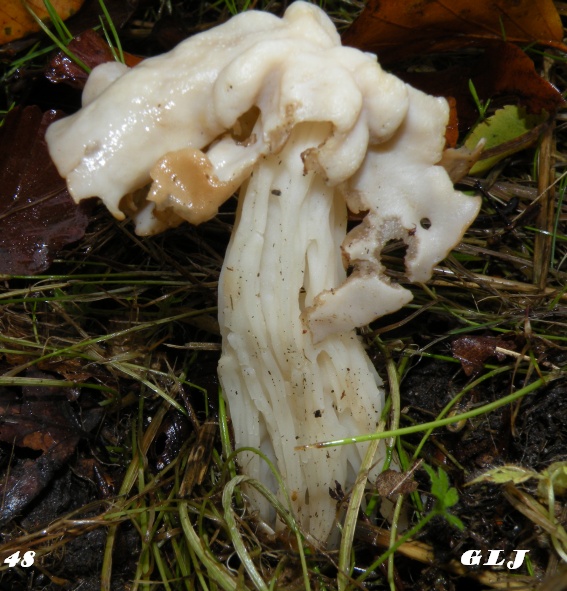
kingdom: Fungi
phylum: Ascomycota
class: Pezizomycetes
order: Pezizales
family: Helvellaceae
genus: Helvella
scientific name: Helvella crispa
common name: kruset foldhat
